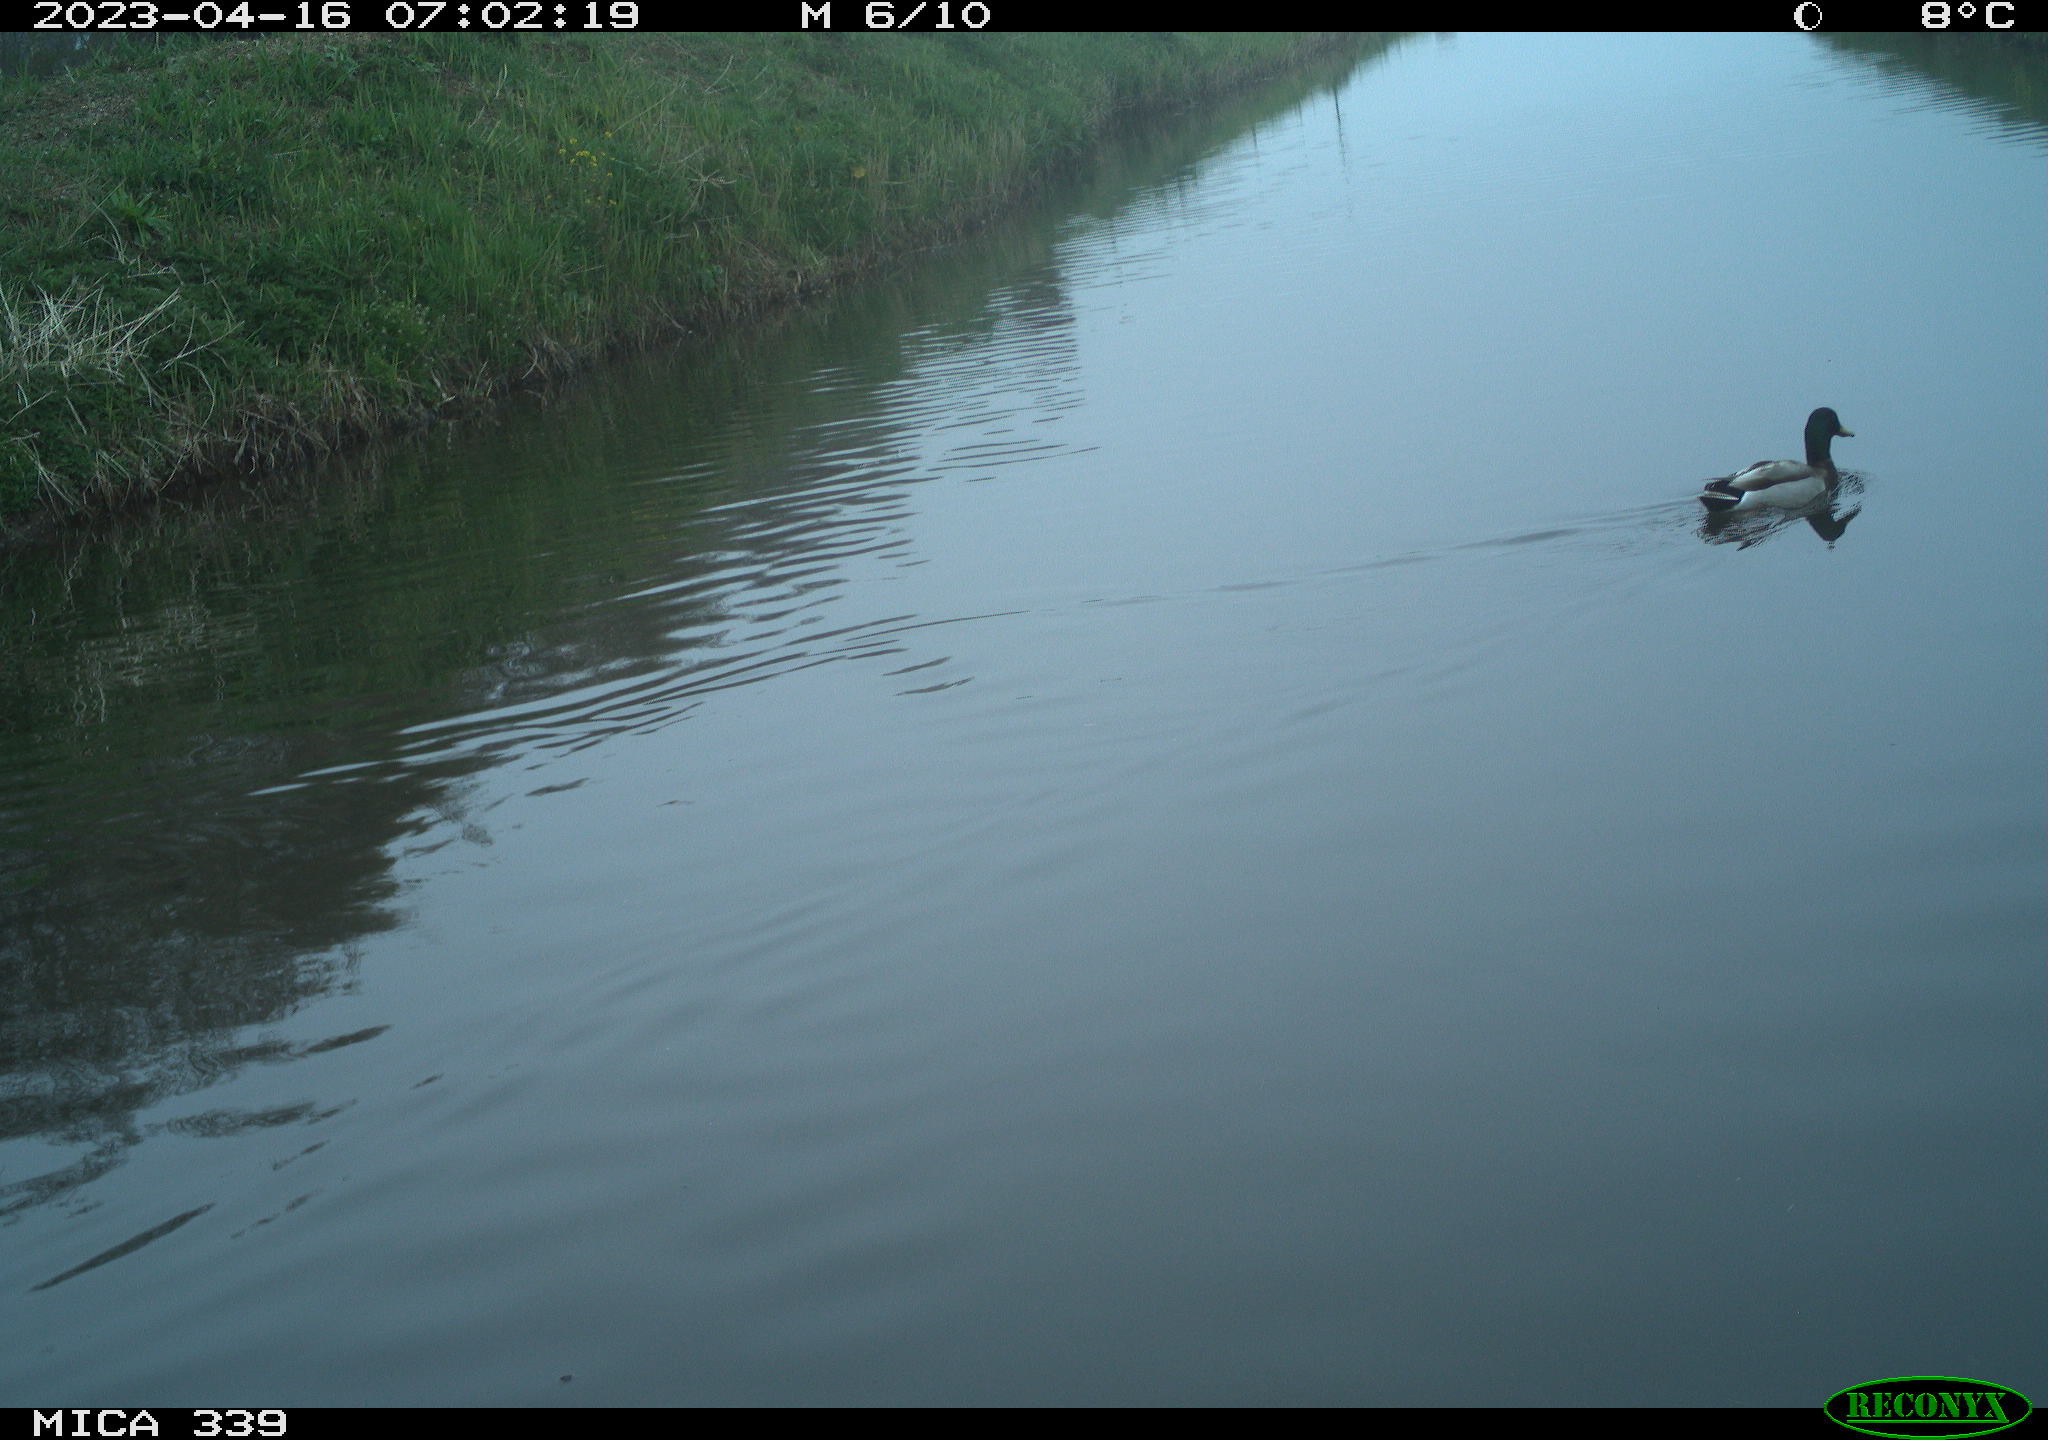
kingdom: Animalia
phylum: Chordata
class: Aves
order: Anseriformes
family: Anatidae
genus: Anas
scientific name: Anas
